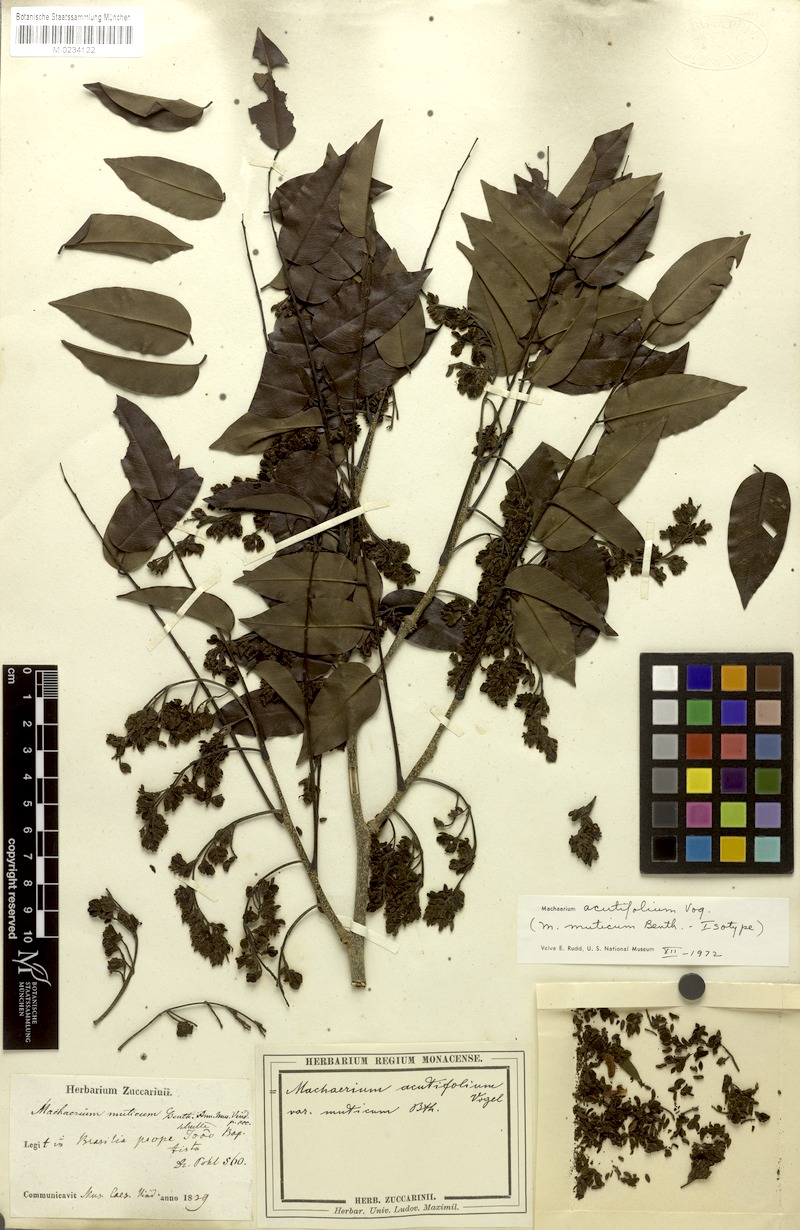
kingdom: Plantae
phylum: Tracheophyta
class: Magnoliopsida
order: Fabales
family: Fabaceae
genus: Machaerium
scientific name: Machaerium acutifolium
